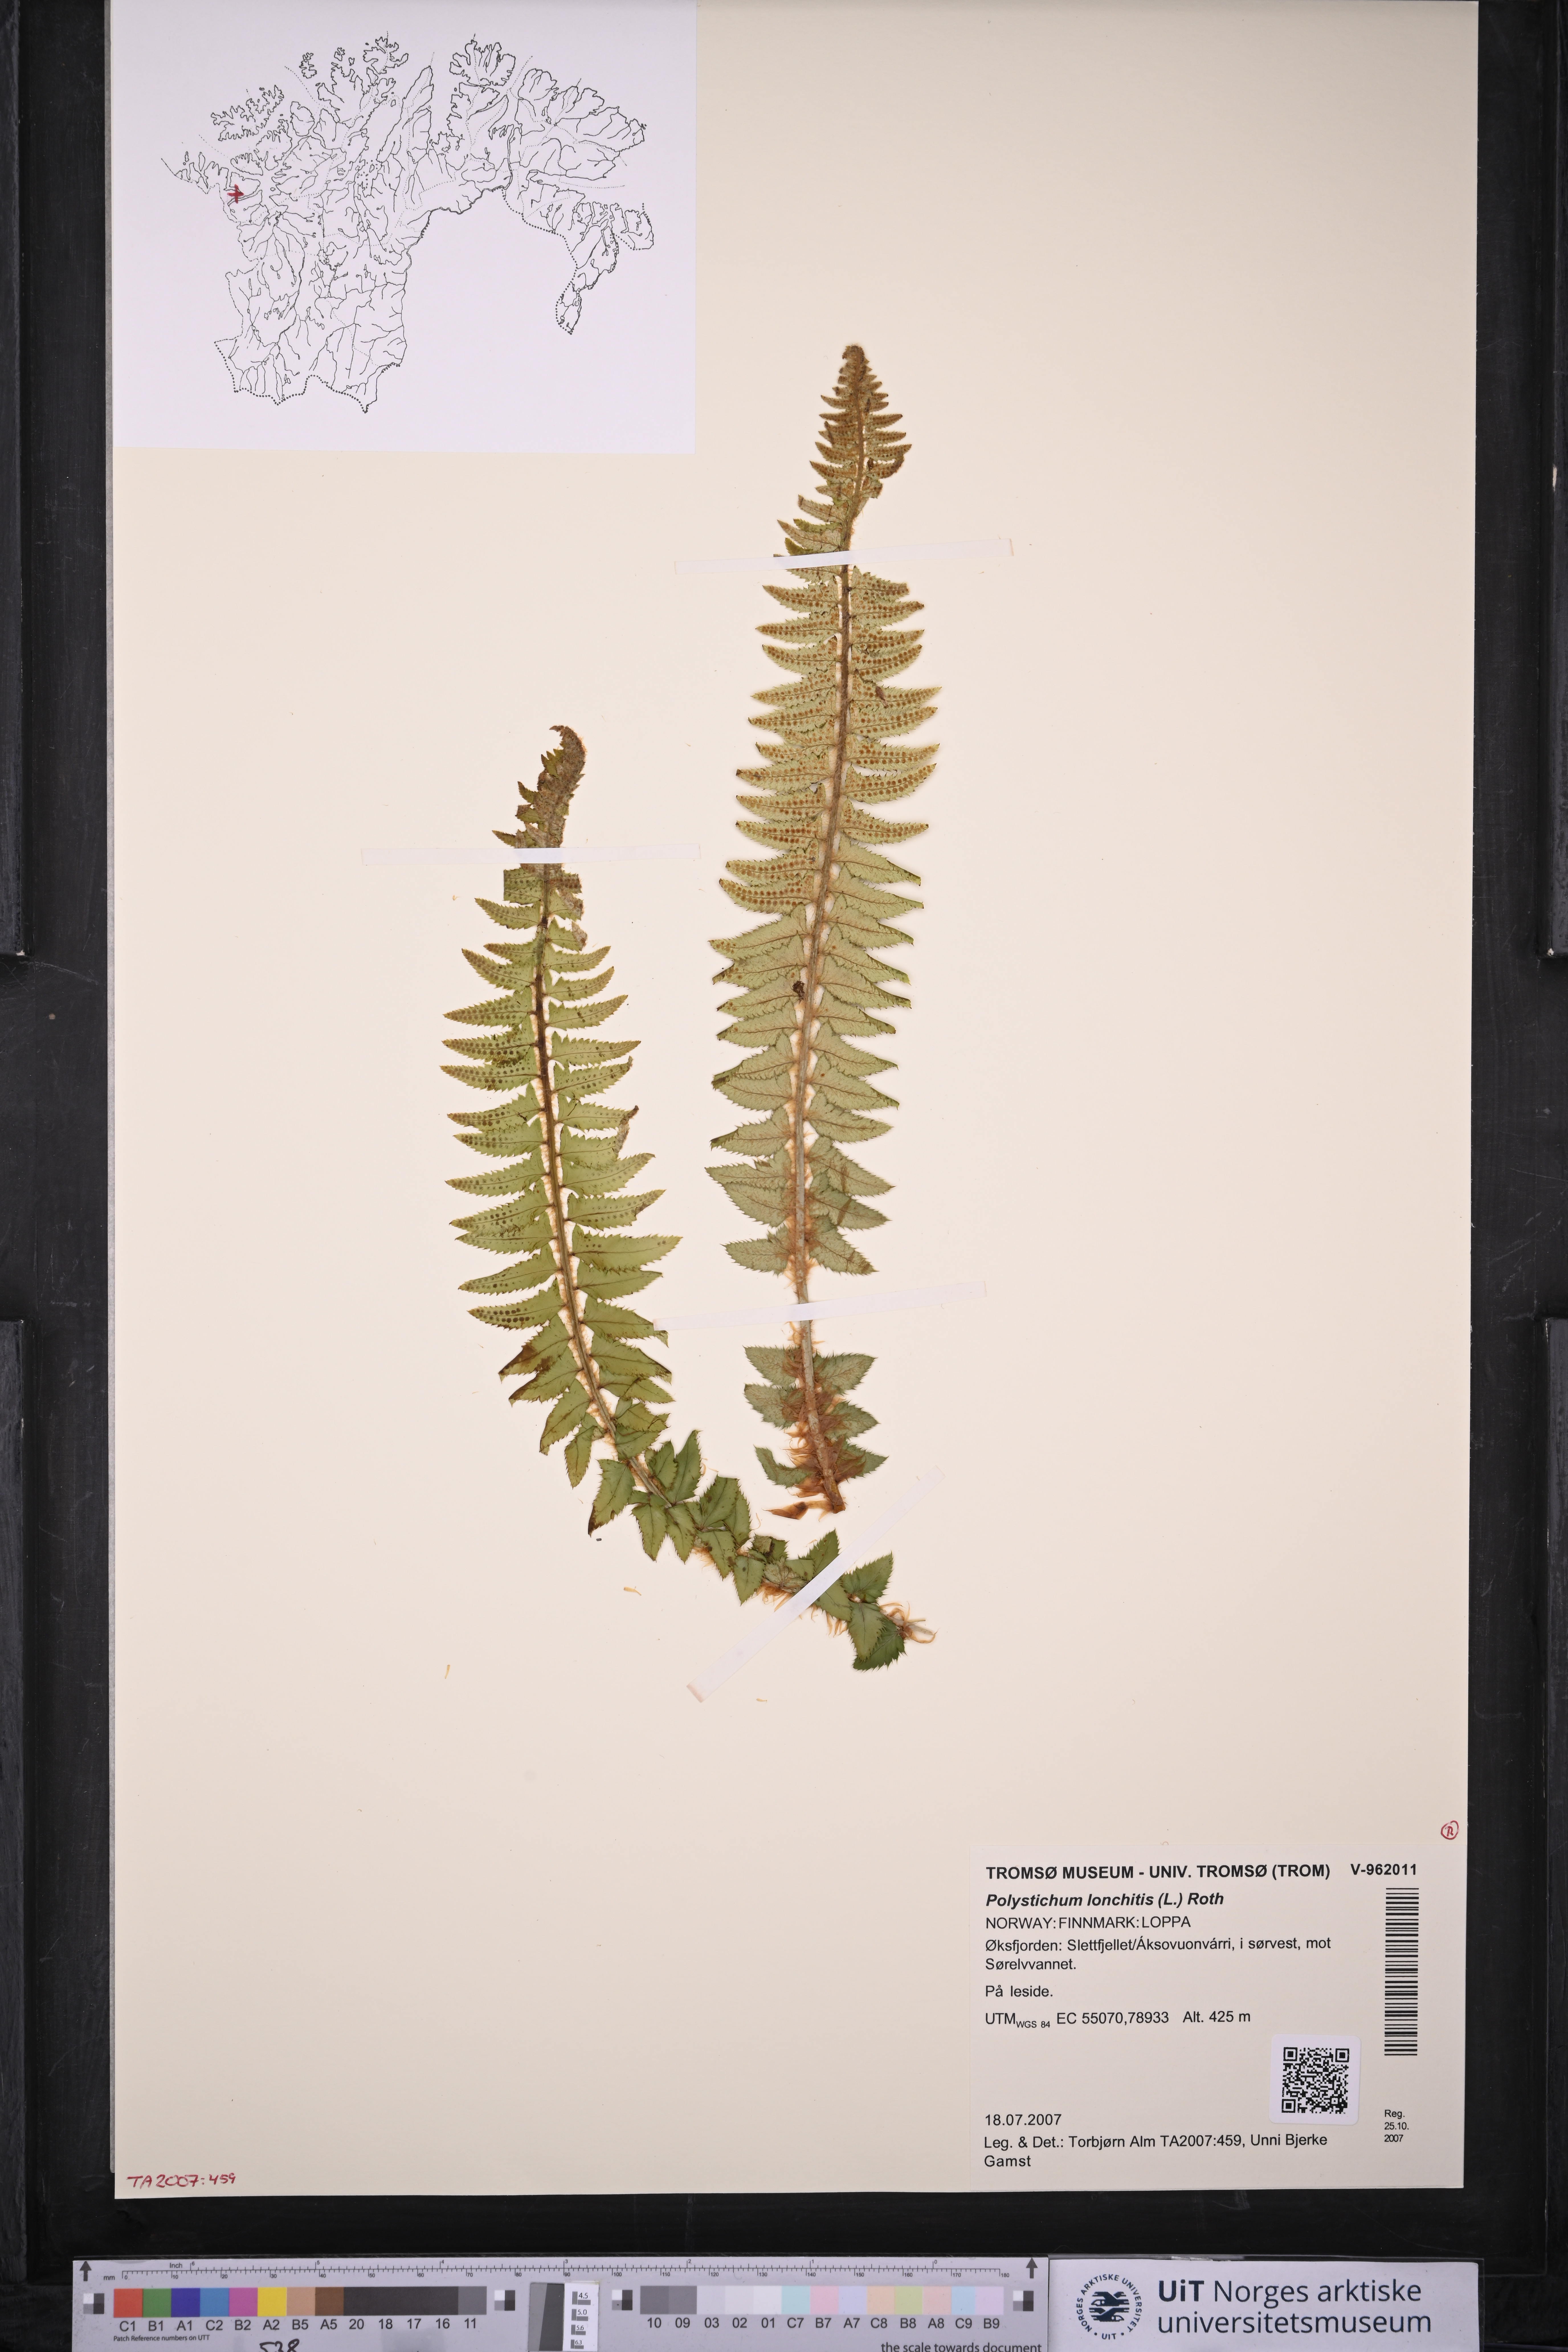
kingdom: Plantae
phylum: Tracheophyta
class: Polypodiopsida
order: Polypodiales
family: Dryopteridaceae
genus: Polystichum
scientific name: Polystichum lonchitis
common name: Holly fern
